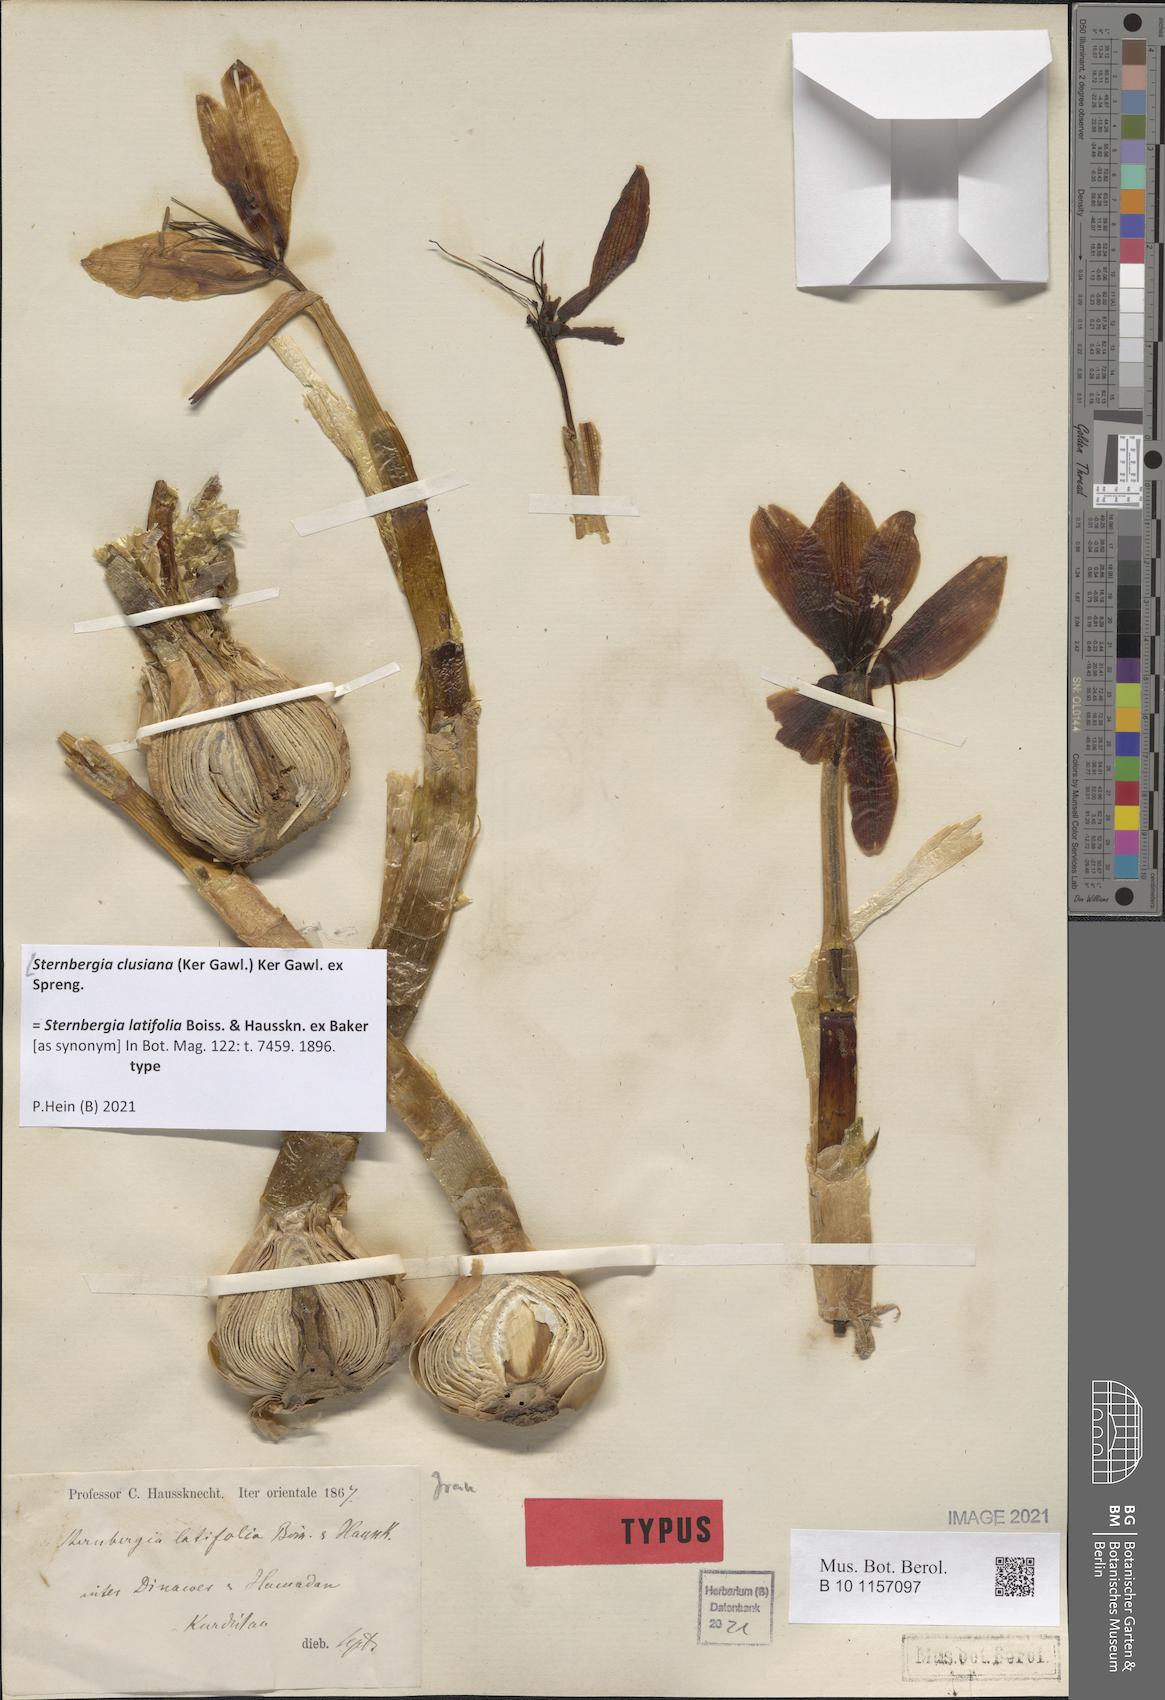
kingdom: Plantae
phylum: Tracheophyta
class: Liliopsida
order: Asparagales
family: Amaryllidaceae
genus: Sternbergia
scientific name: Sternbergia clusiana
